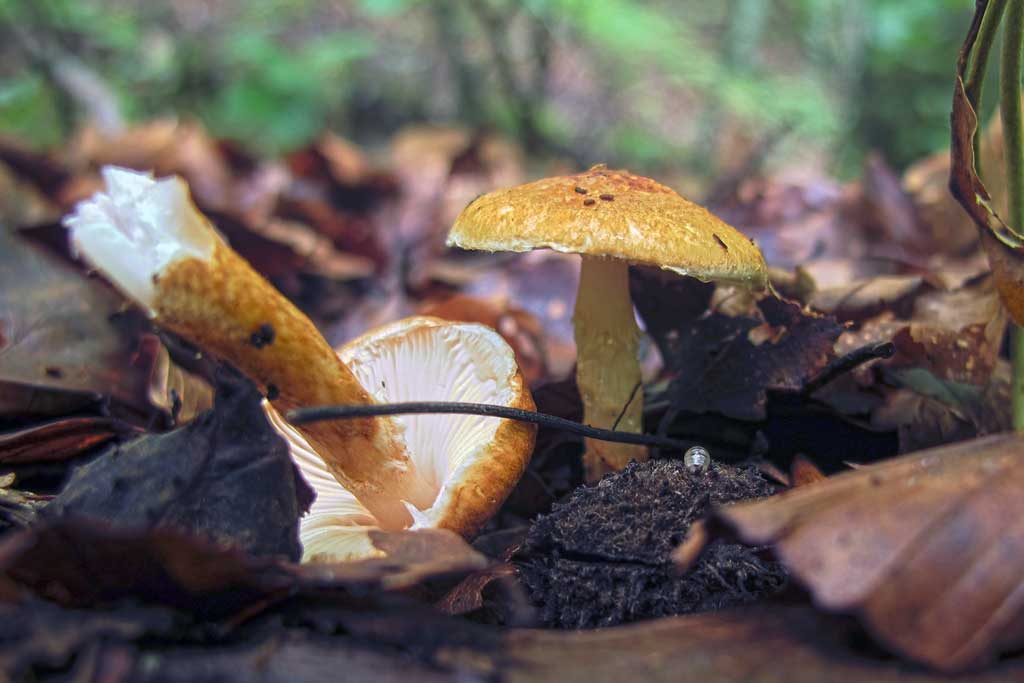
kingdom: Fungi
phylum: Basidiomycota
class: Agaricomycetes
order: Agaricales
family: Agaricaceae
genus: Leucocoprinus
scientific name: Leucocoprinus straminellus
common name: rustbrun parasolhat
